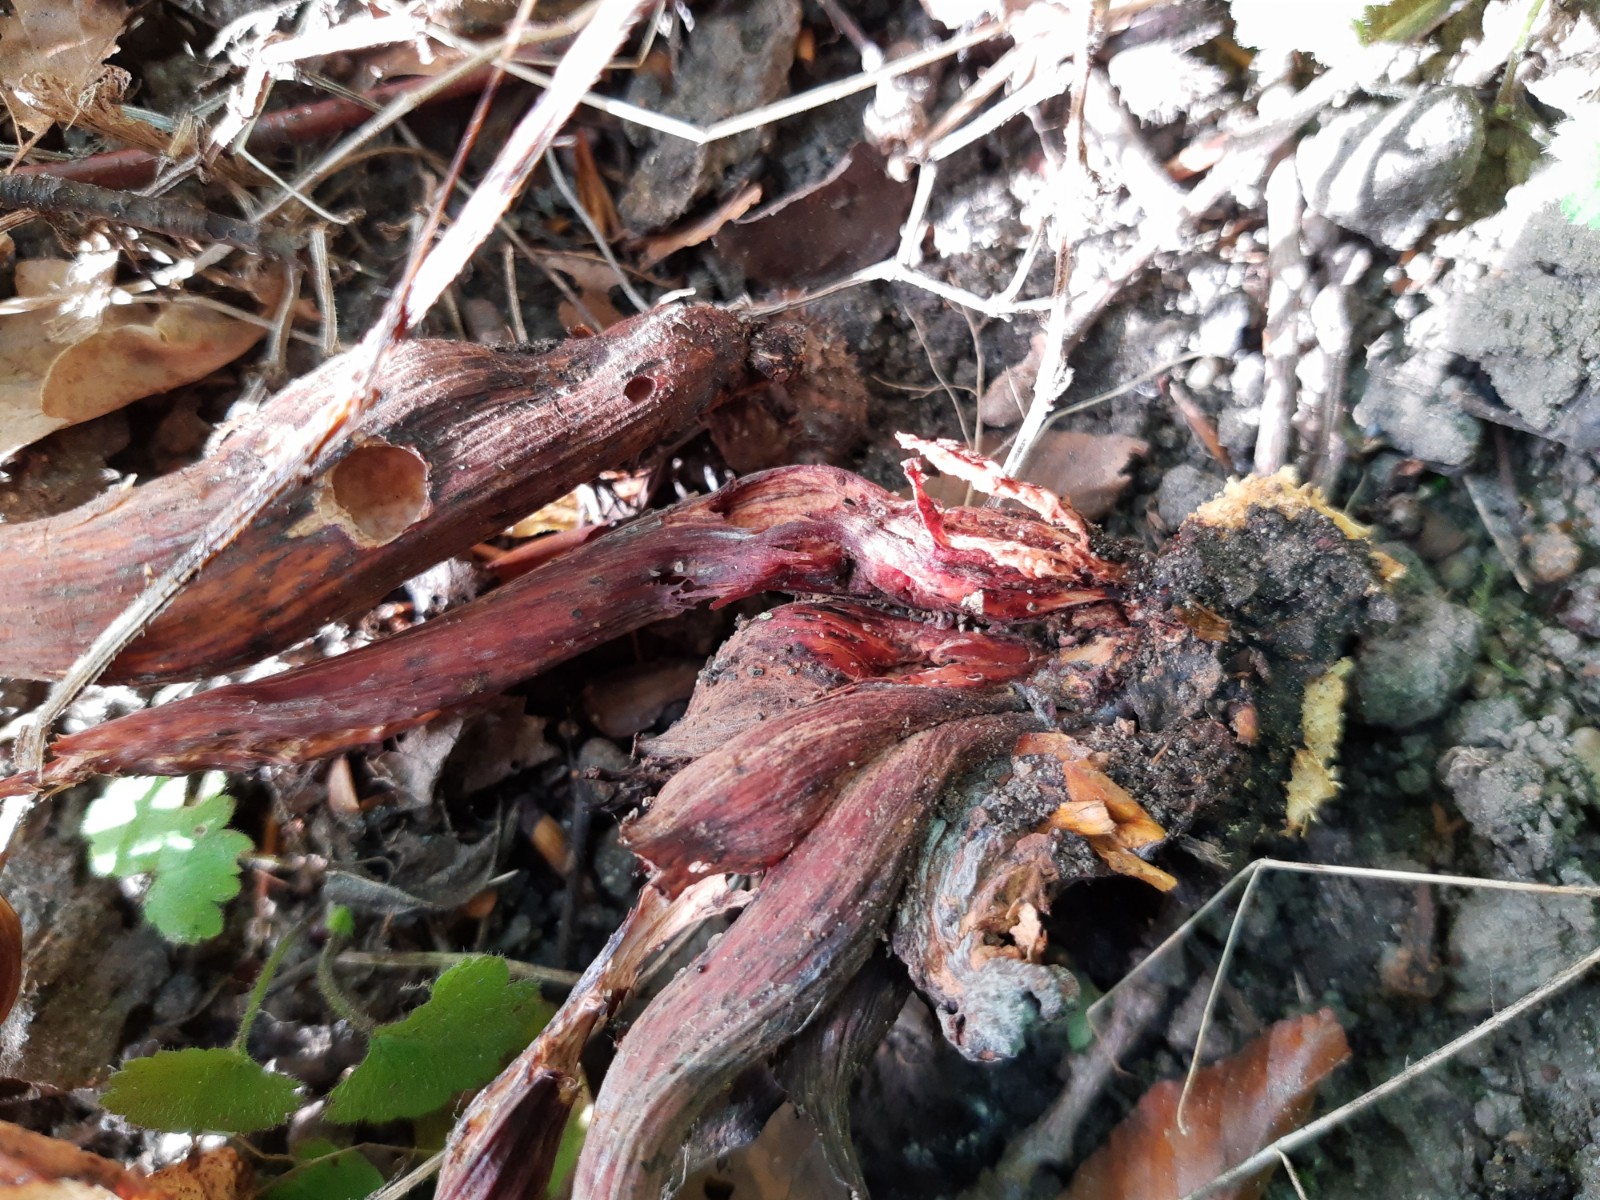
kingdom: Fungi
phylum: Basidiomycota
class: Agaricomycetes
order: Agaricales
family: Omphalotaceae
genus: Gymnopus
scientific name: Gymnopus fusipes
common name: tenstokket fladhat
